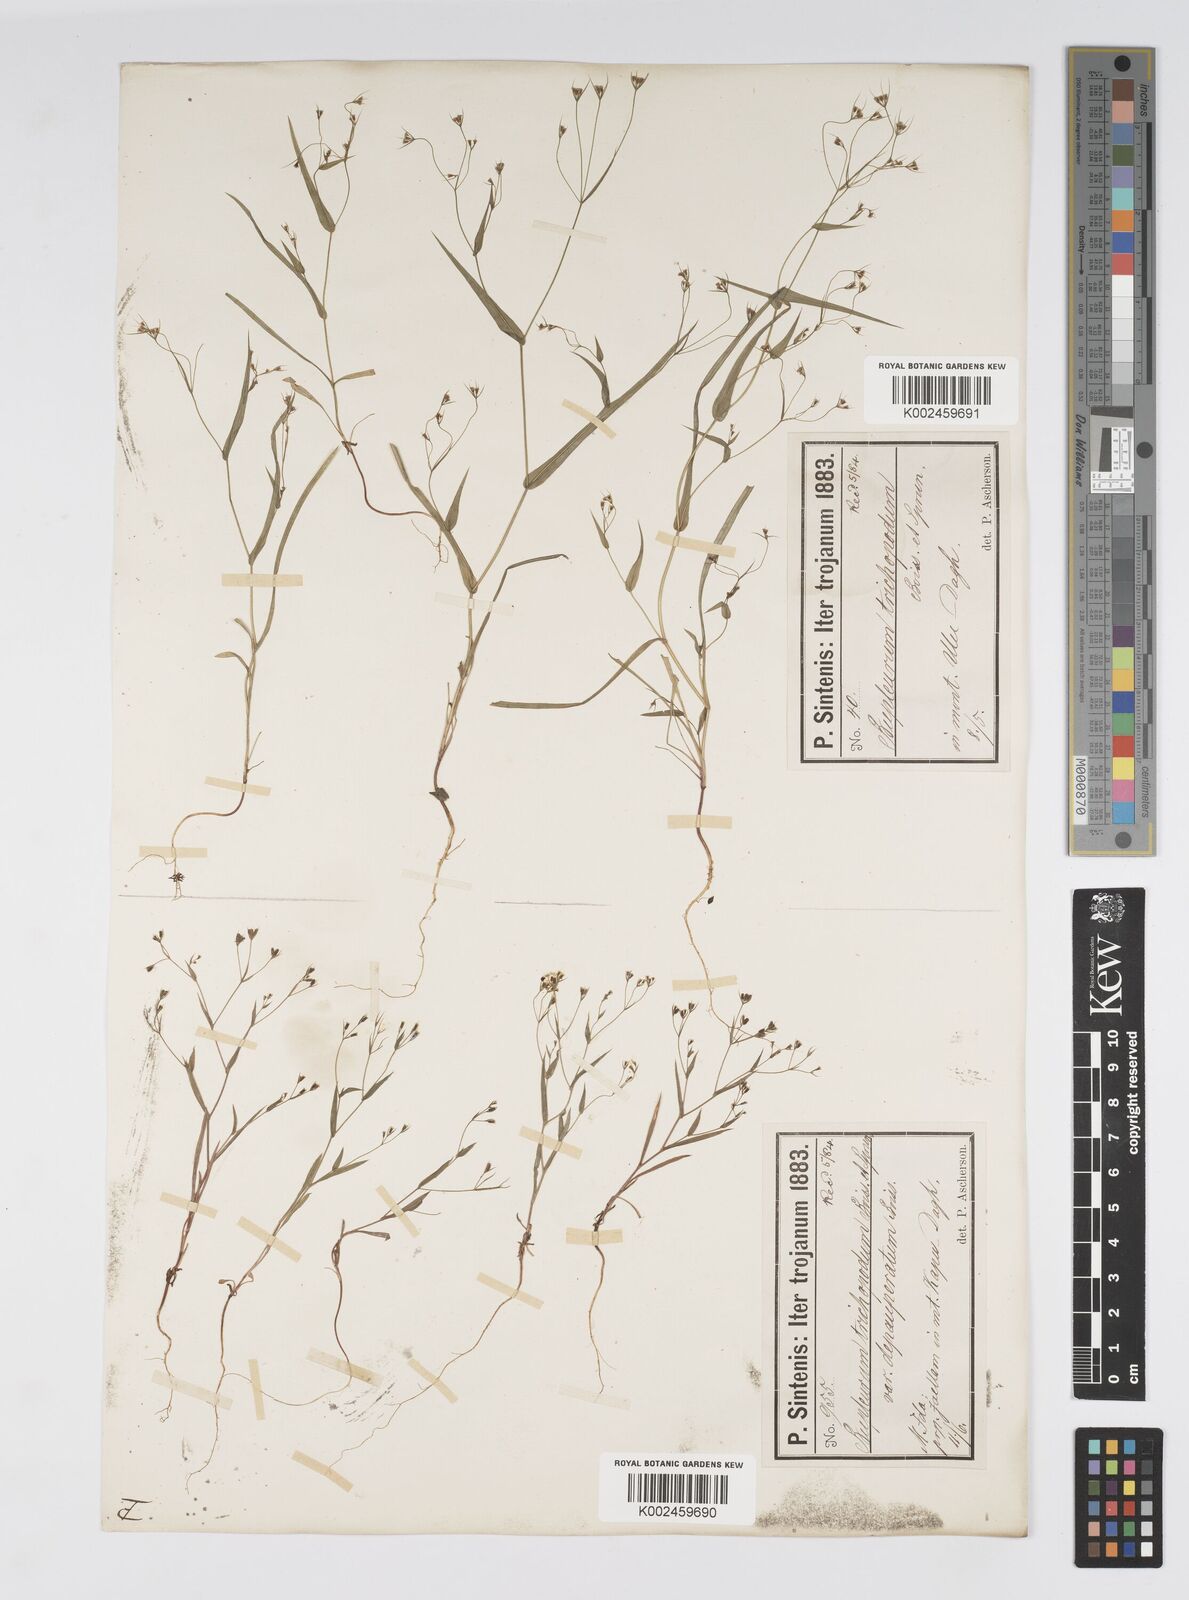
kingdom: Plantae
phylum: Tracheophyta
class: Magnoliopsida
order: Apiales
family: Apiaceae
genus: Bupleurum
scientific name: Bupleurum trichopodum
